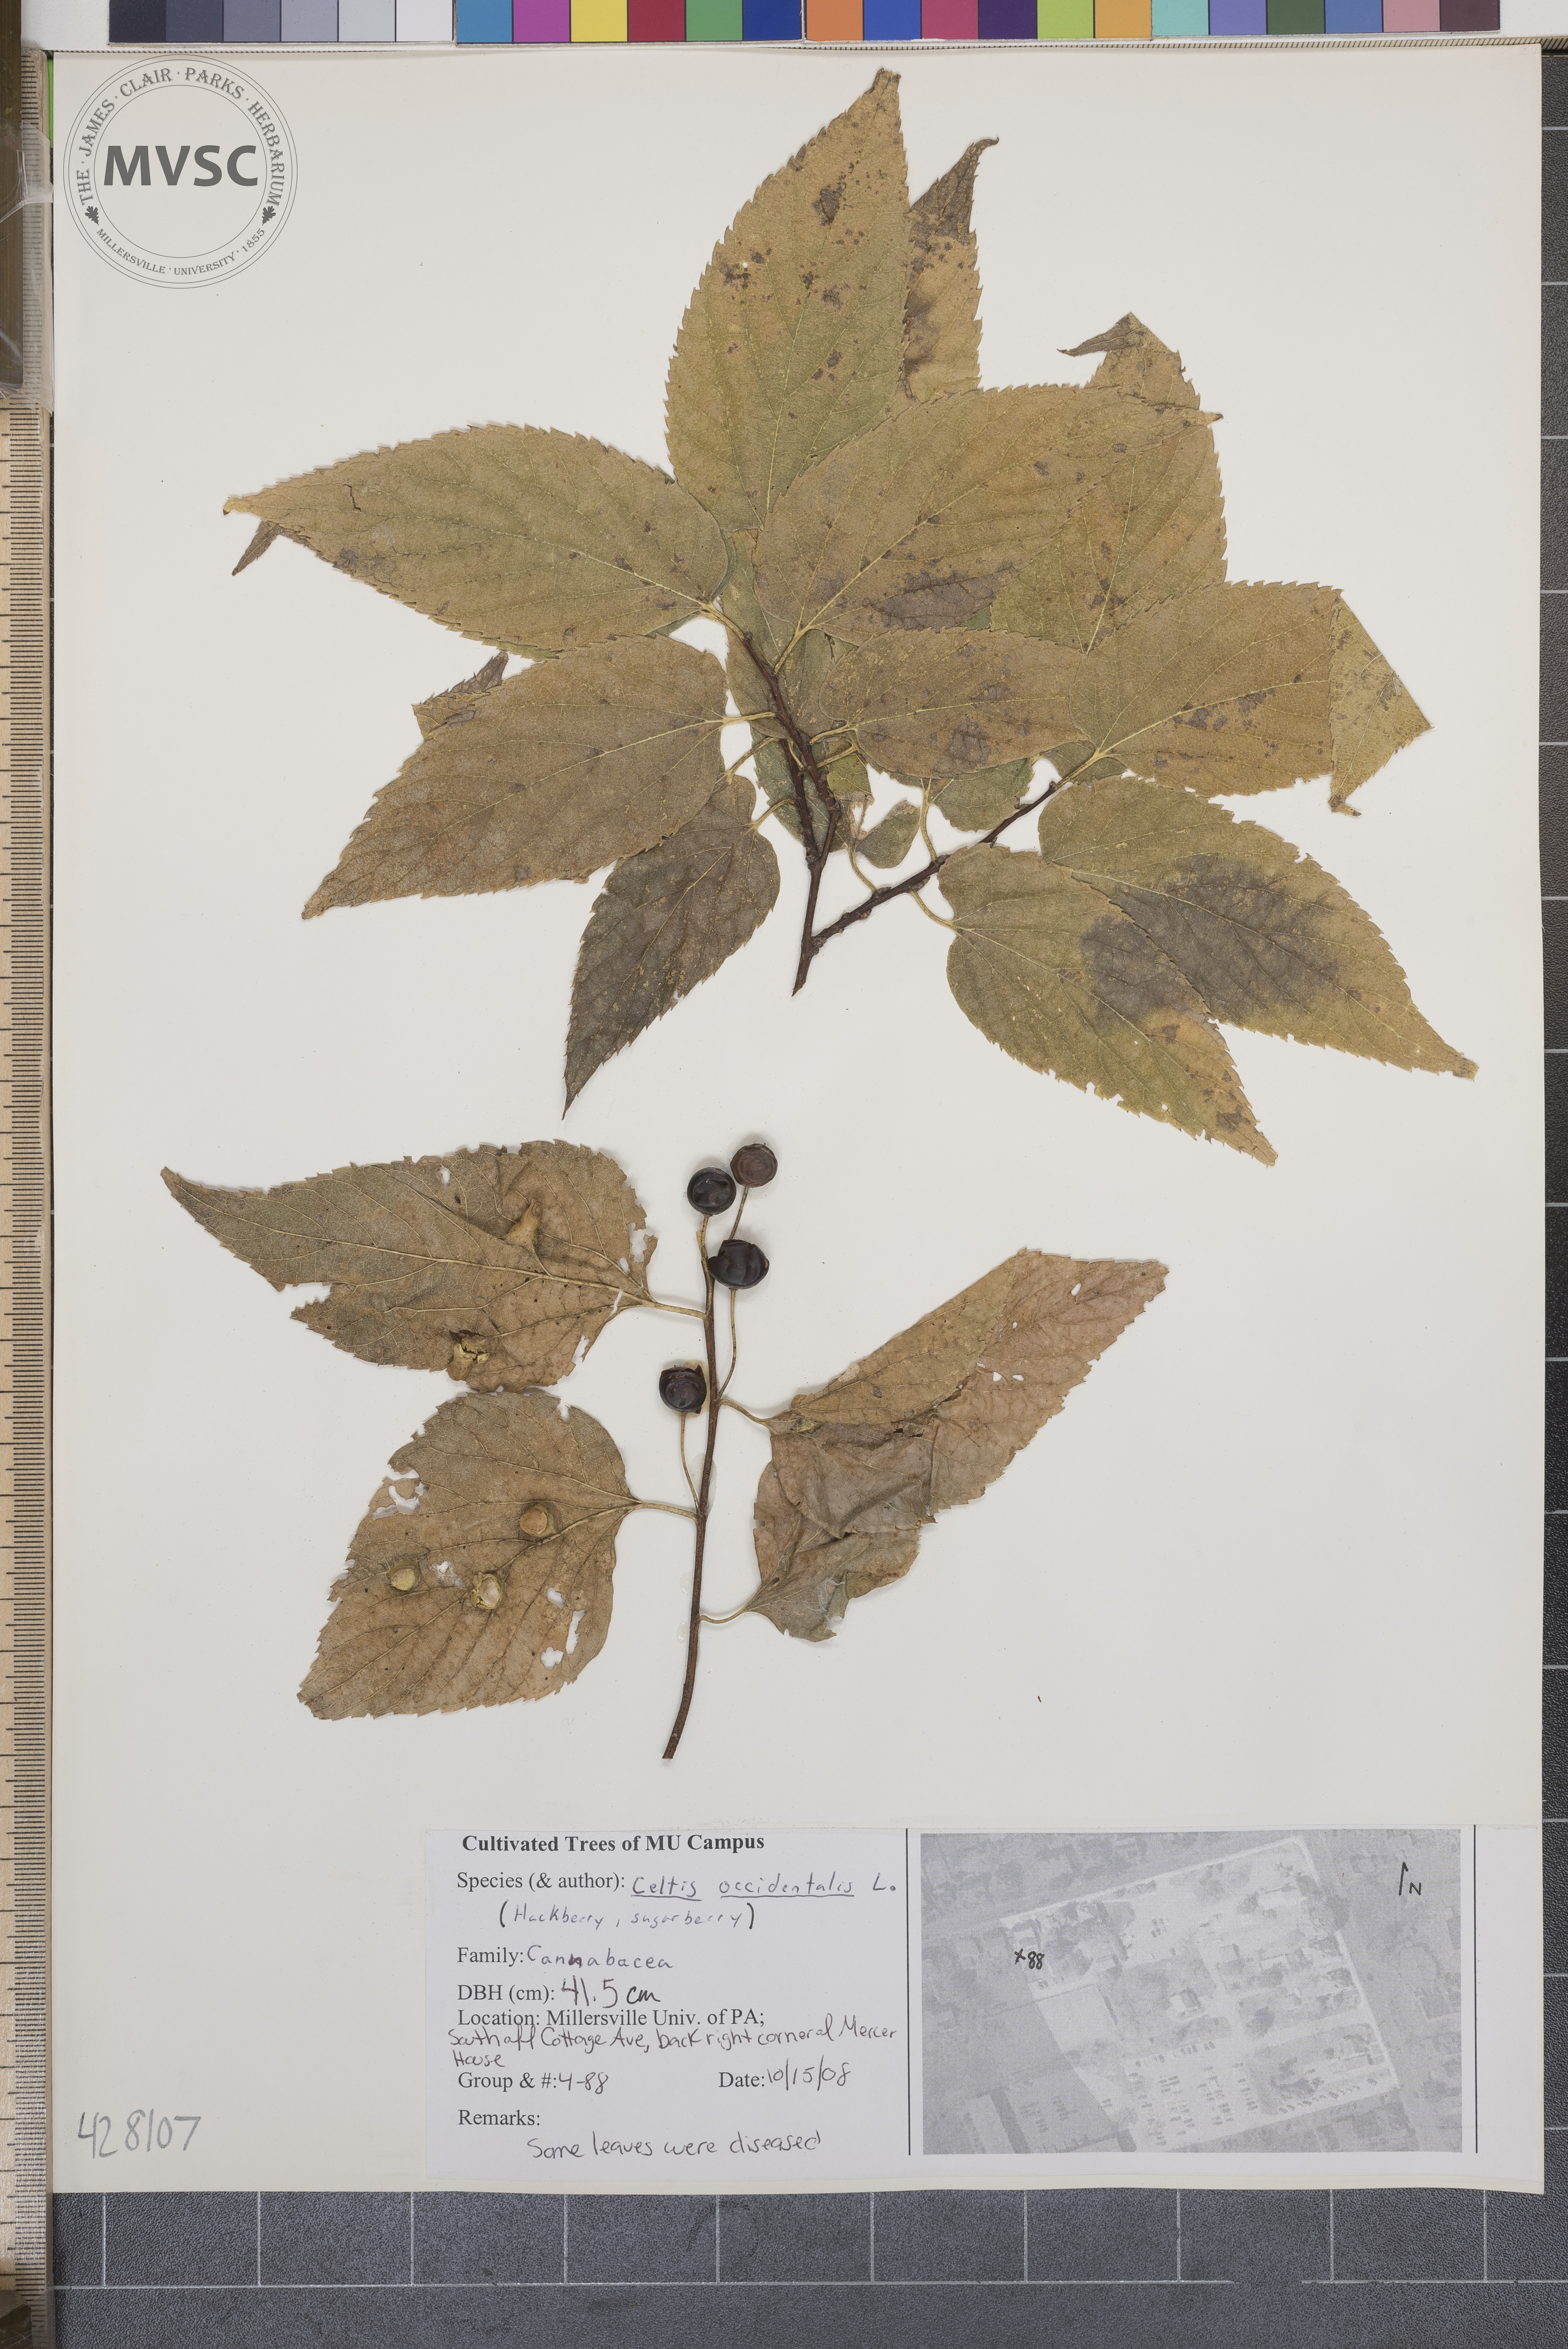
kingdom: Plantae
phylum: Tracheophyta
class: Magnoliopsida
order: Rosales
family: Cannabaceae
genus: Celtis
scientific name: Celtis occidentalis
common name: Hackberry
